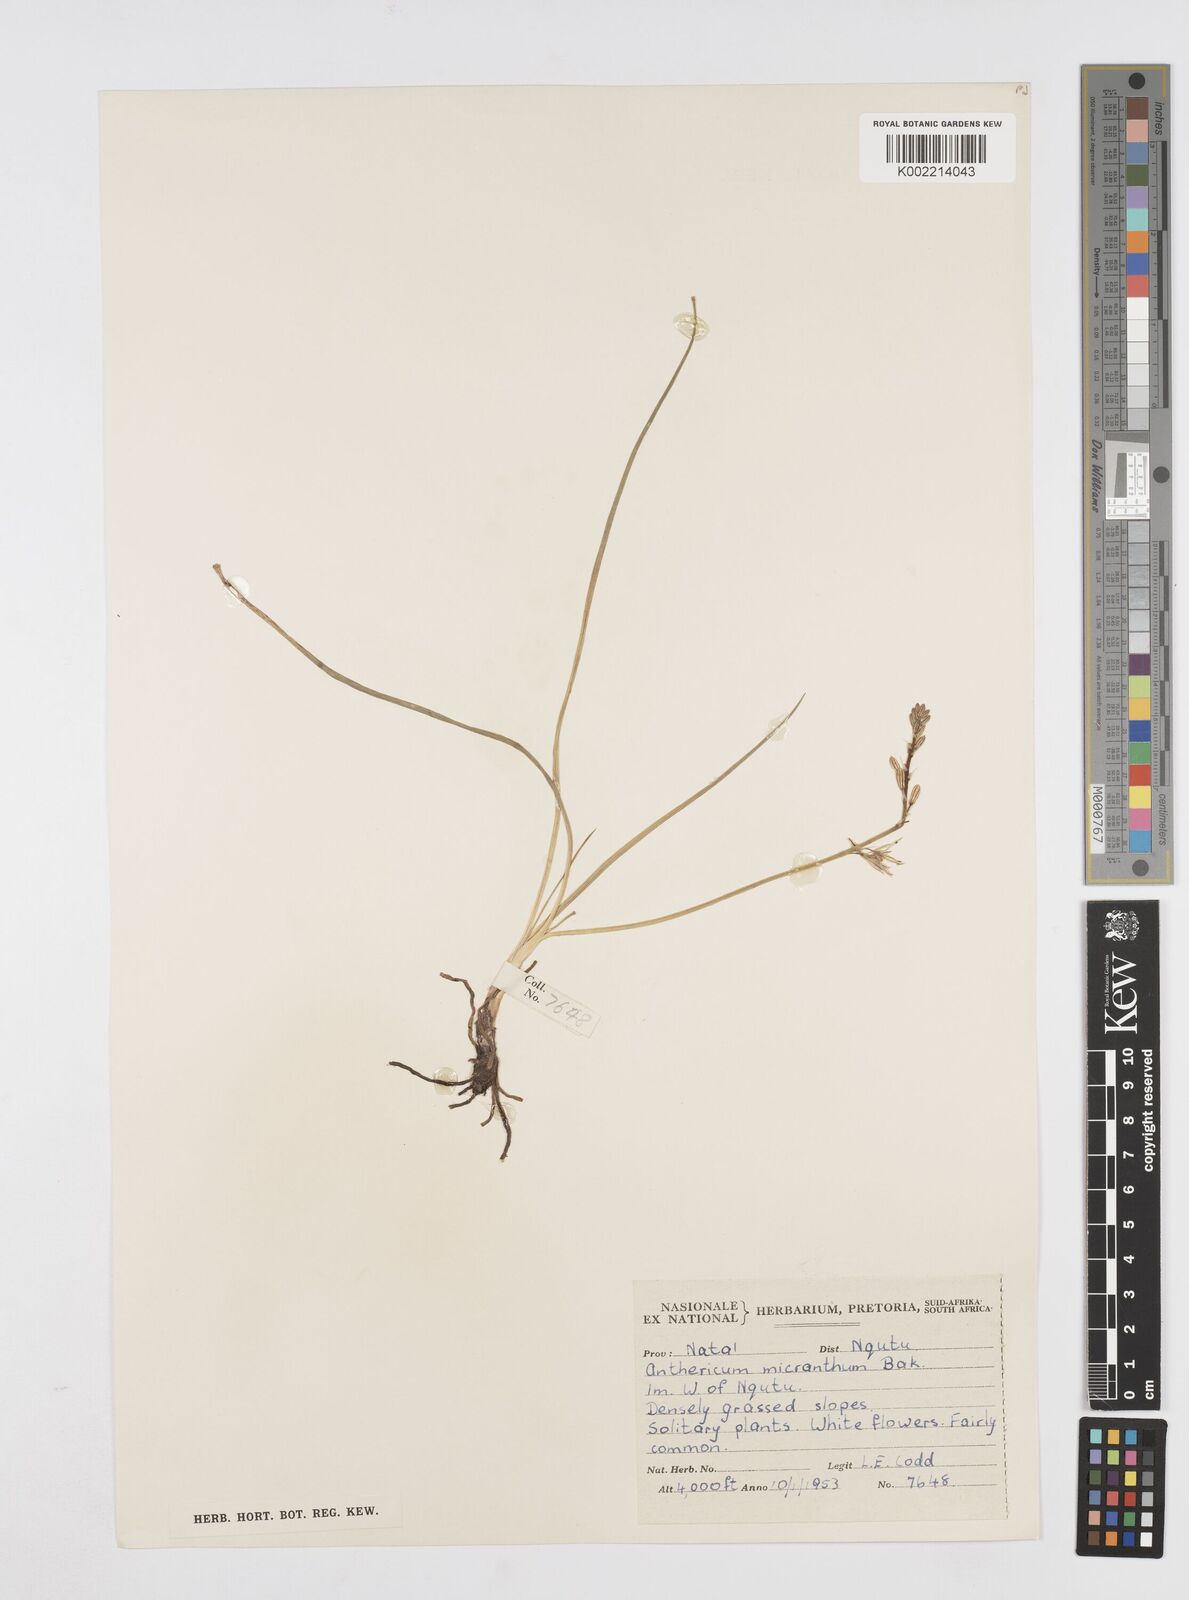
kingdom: Plantae
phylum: Tracheophyta
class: Liliopsida
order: Asparagales
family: Asphodelaceae
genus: Trachyandra
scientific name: Trachyandra
